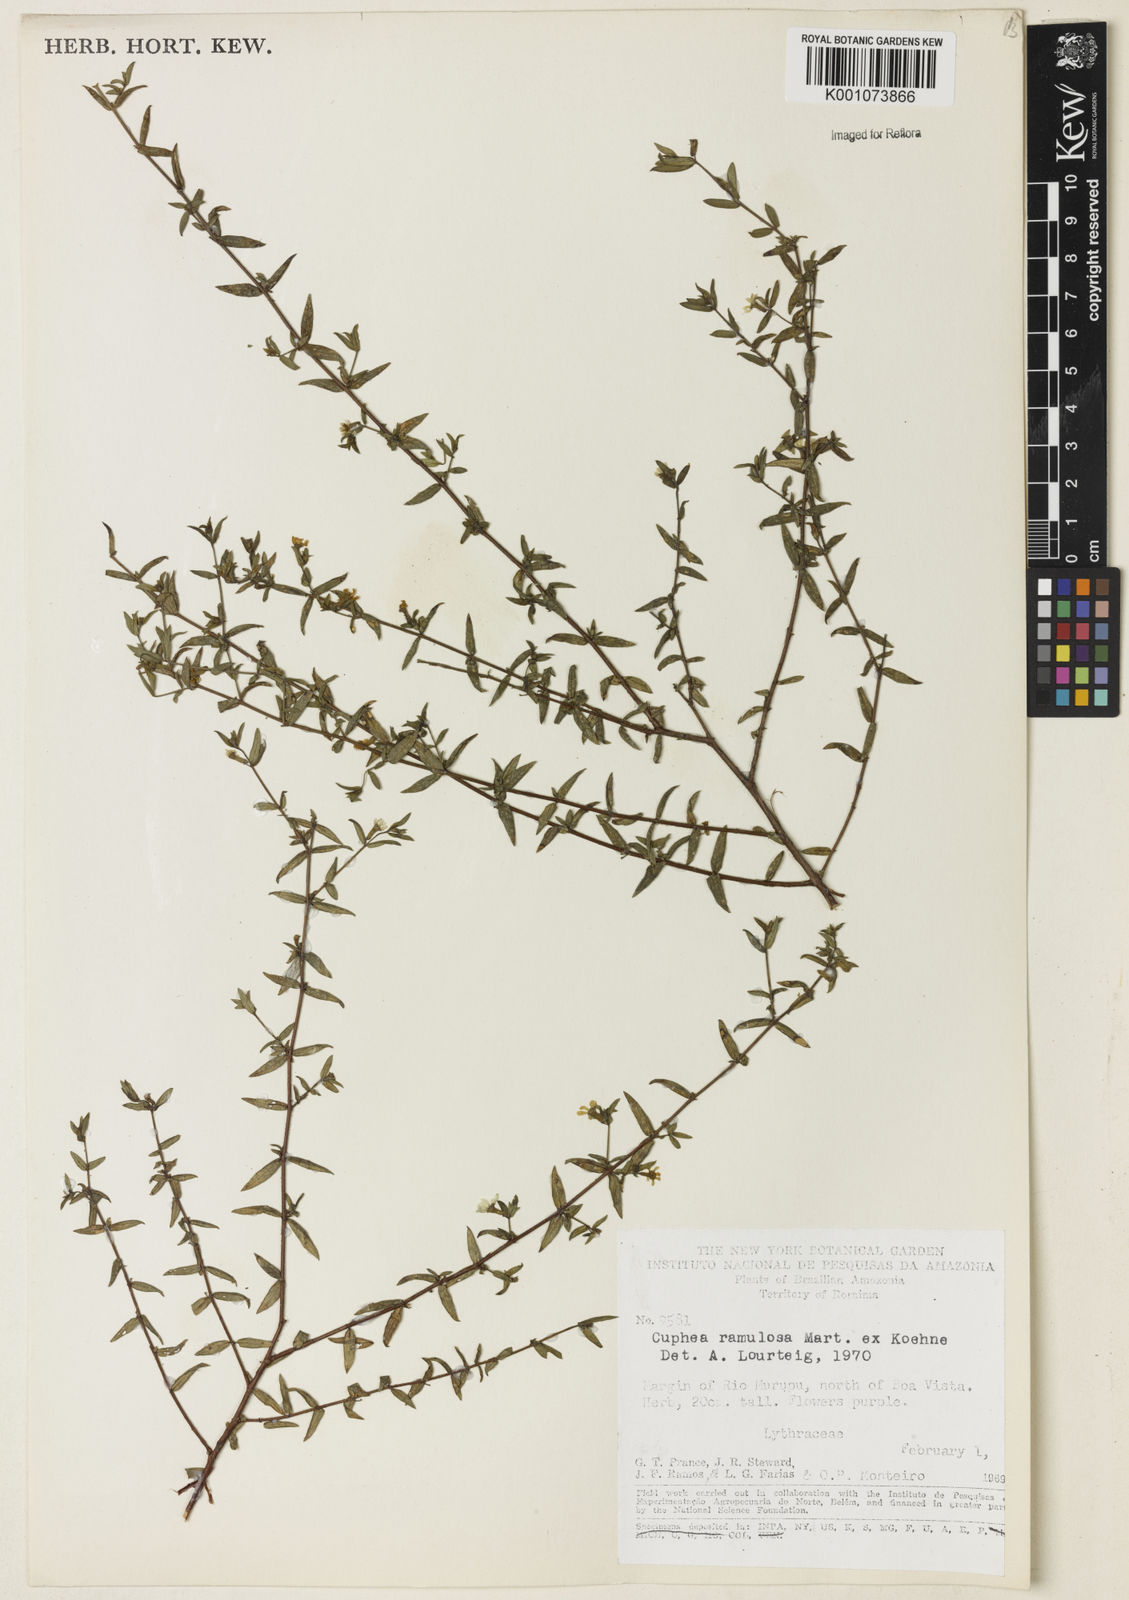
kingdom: Plantae
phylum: Tracheophyta
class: Magnoliopsida
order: Myrtales
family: Lythraceae
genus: Cuphea
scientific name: Cuphea antisyphilitica
